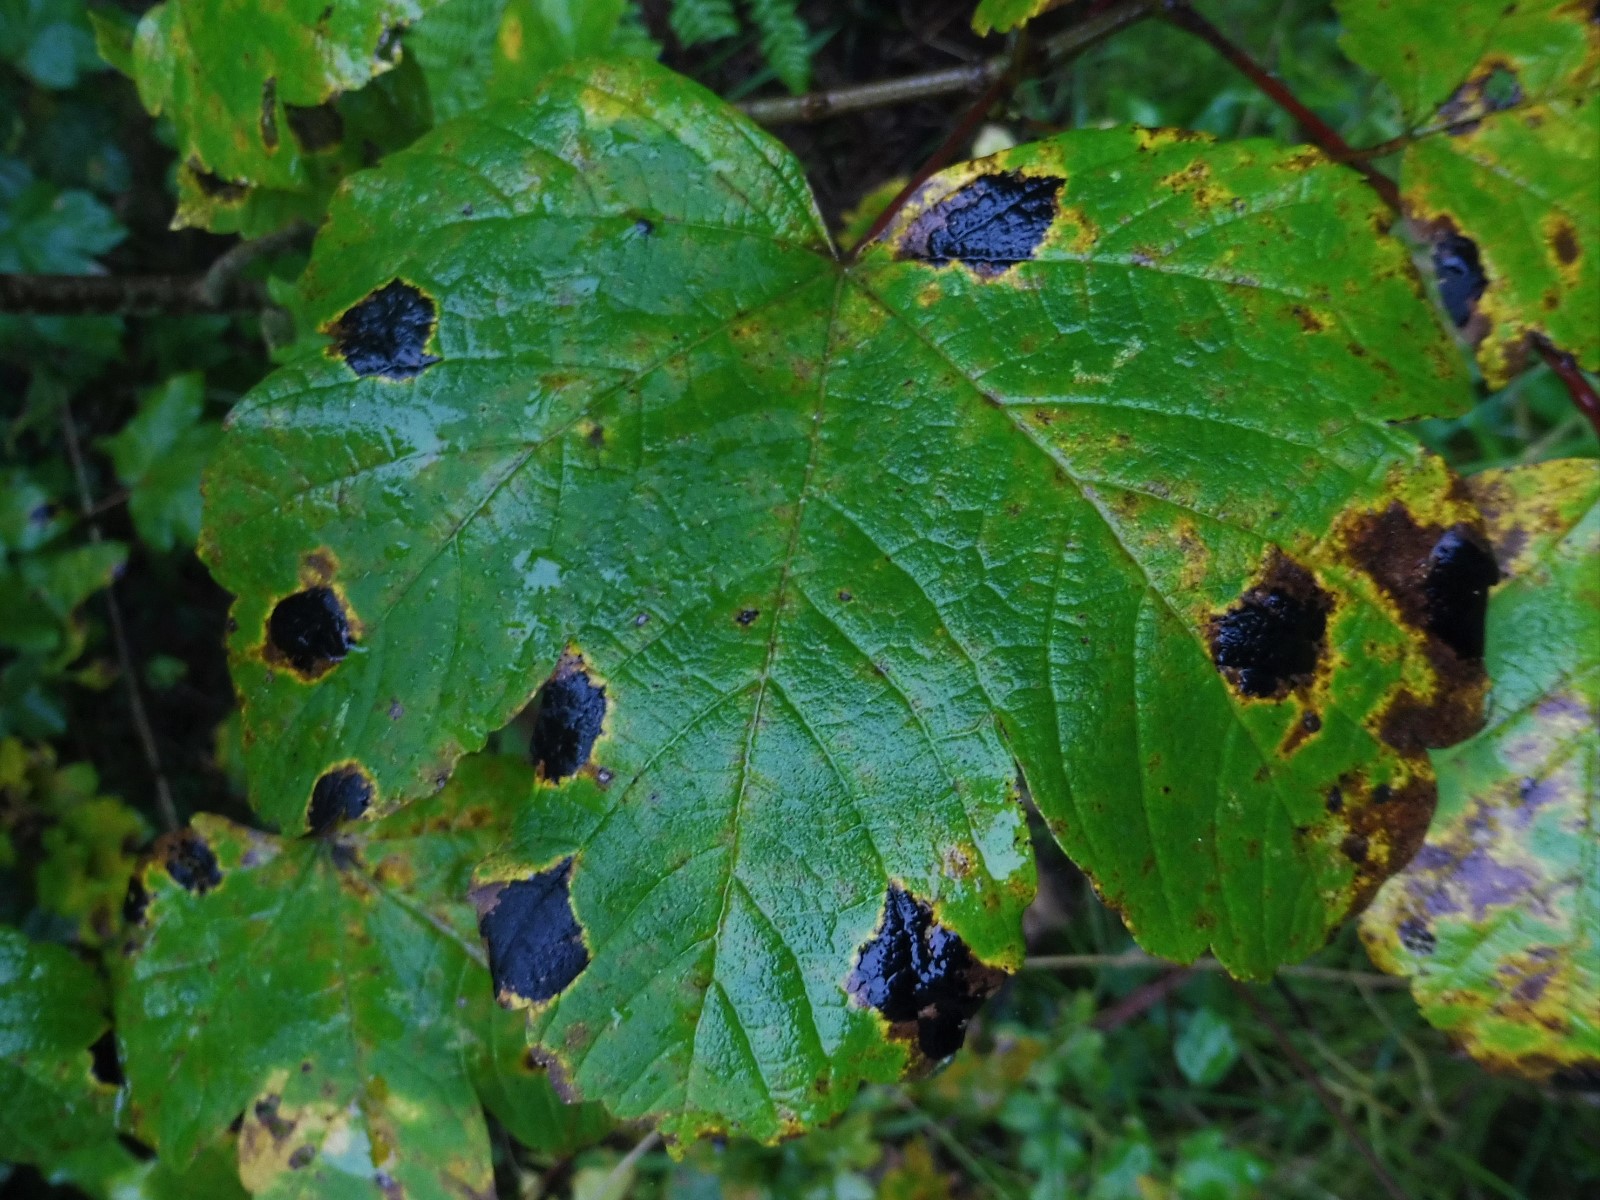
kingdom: Fungi
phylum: Ascomycota
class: Leotiomycetes
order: Rhytismatales
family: Rhytismataceae
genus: Rhytisma
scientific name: Rhytisma acerinum
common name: ahorn-rynkeplet
